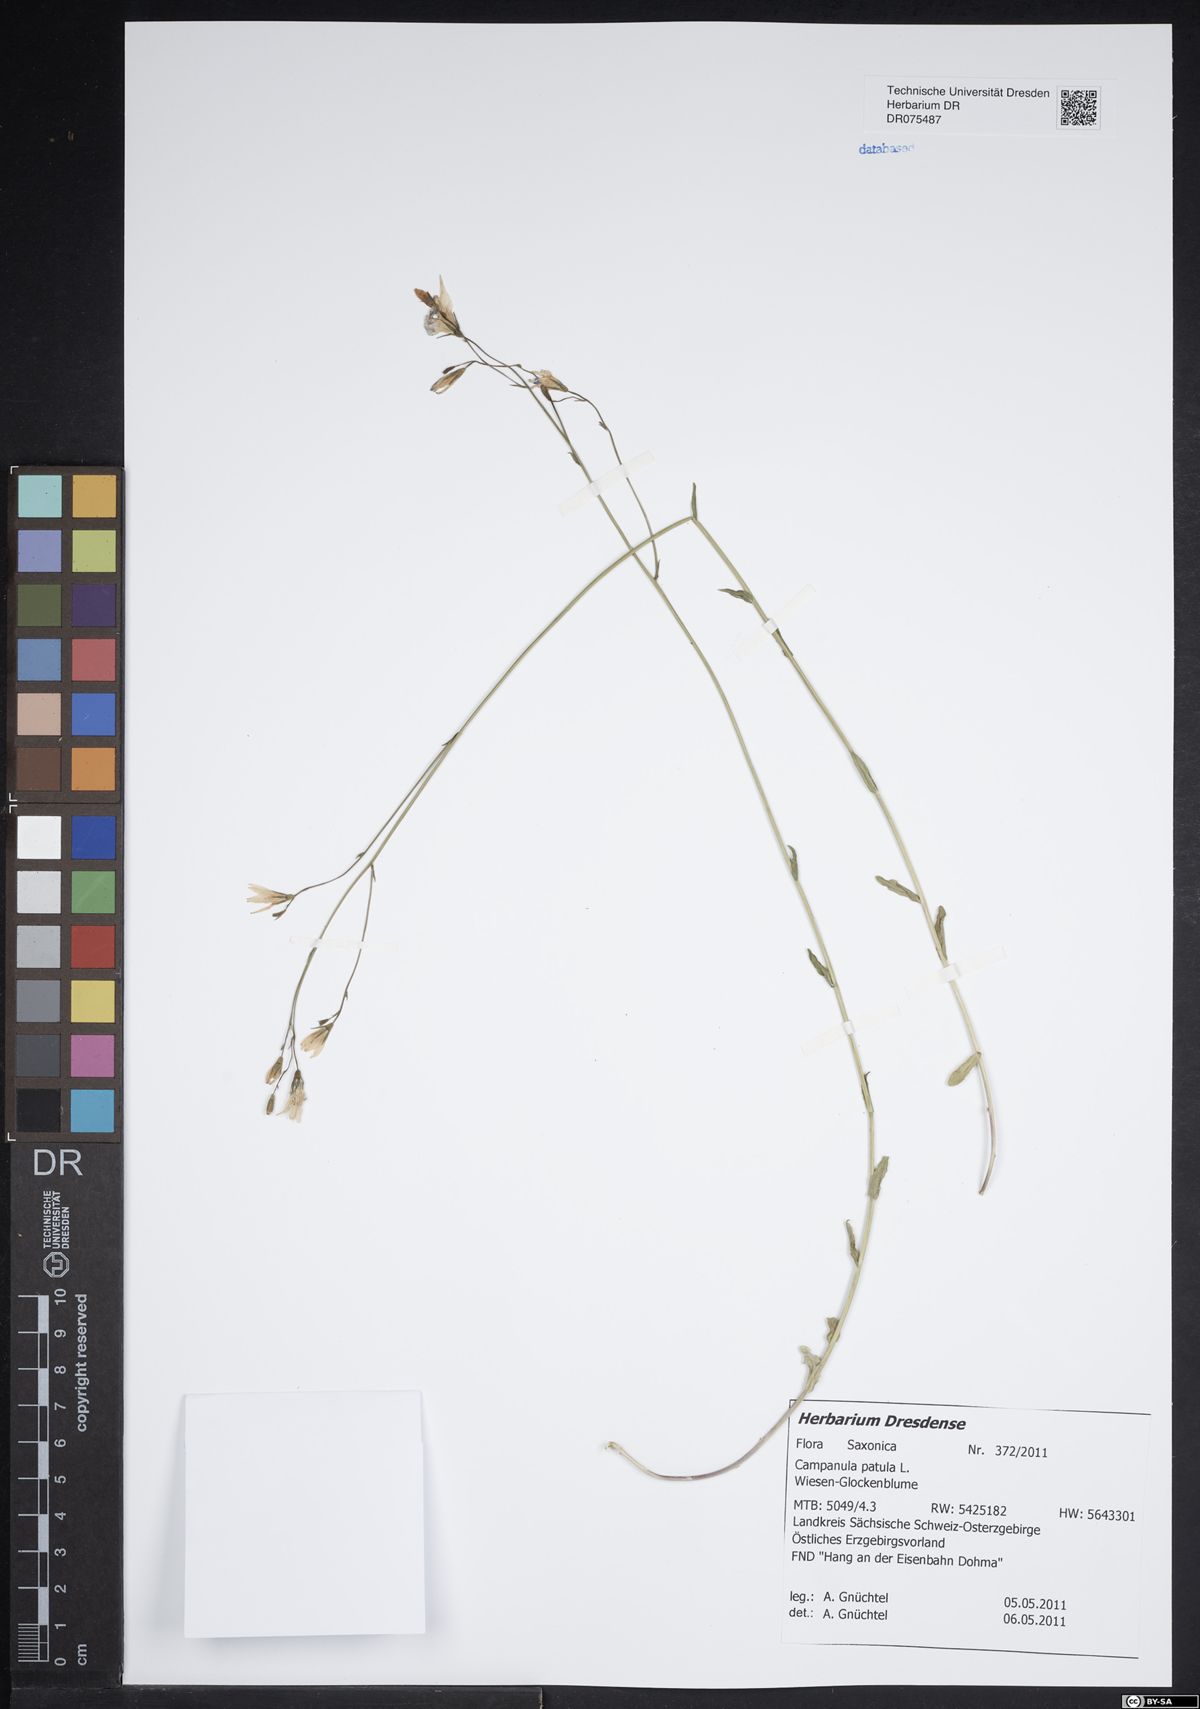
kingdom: Plantae
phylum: Tracheophyta
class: Magnoliopsida
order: Asterales
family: Campanulaceae
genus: Campanula
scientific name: Campanula patula
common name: Spreading bellflower
